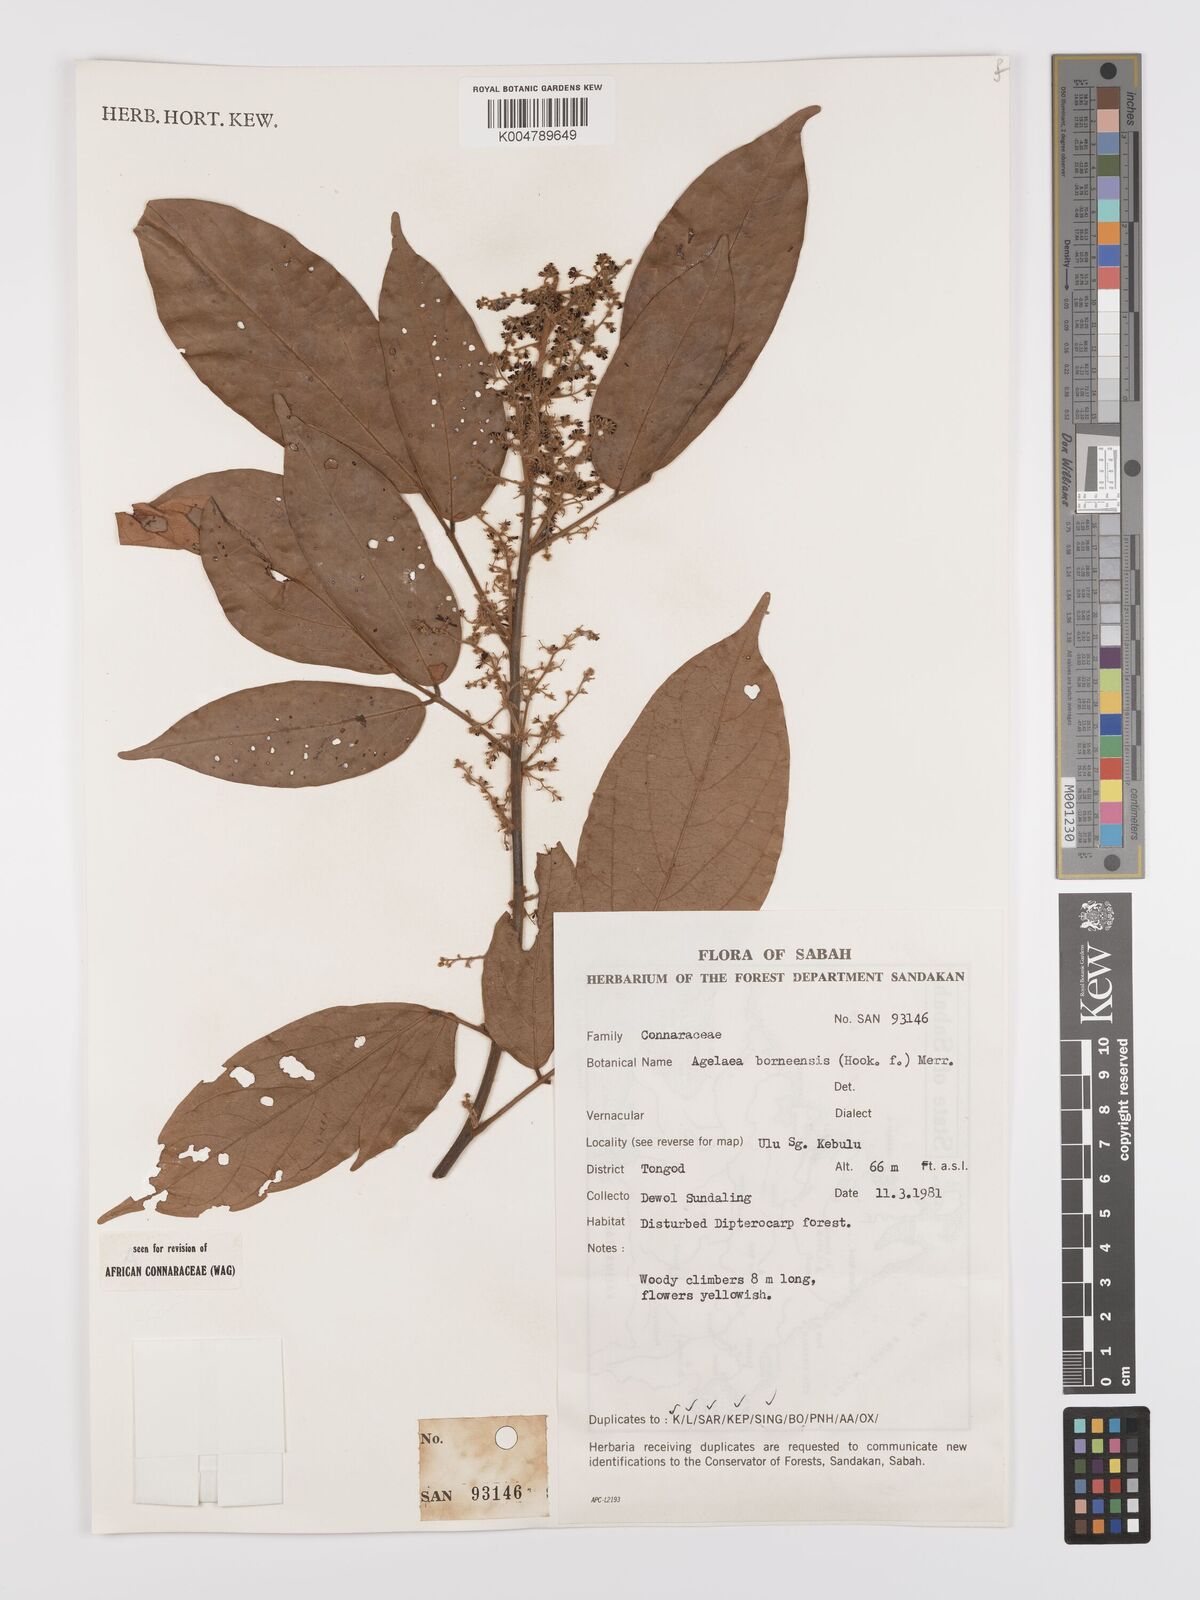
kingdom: Plantae
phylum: Tracheophyta
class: Magnoliopsida
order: Oxalidales
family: Connaraceae
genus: Agelaea
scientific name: Agelaea borneensis
